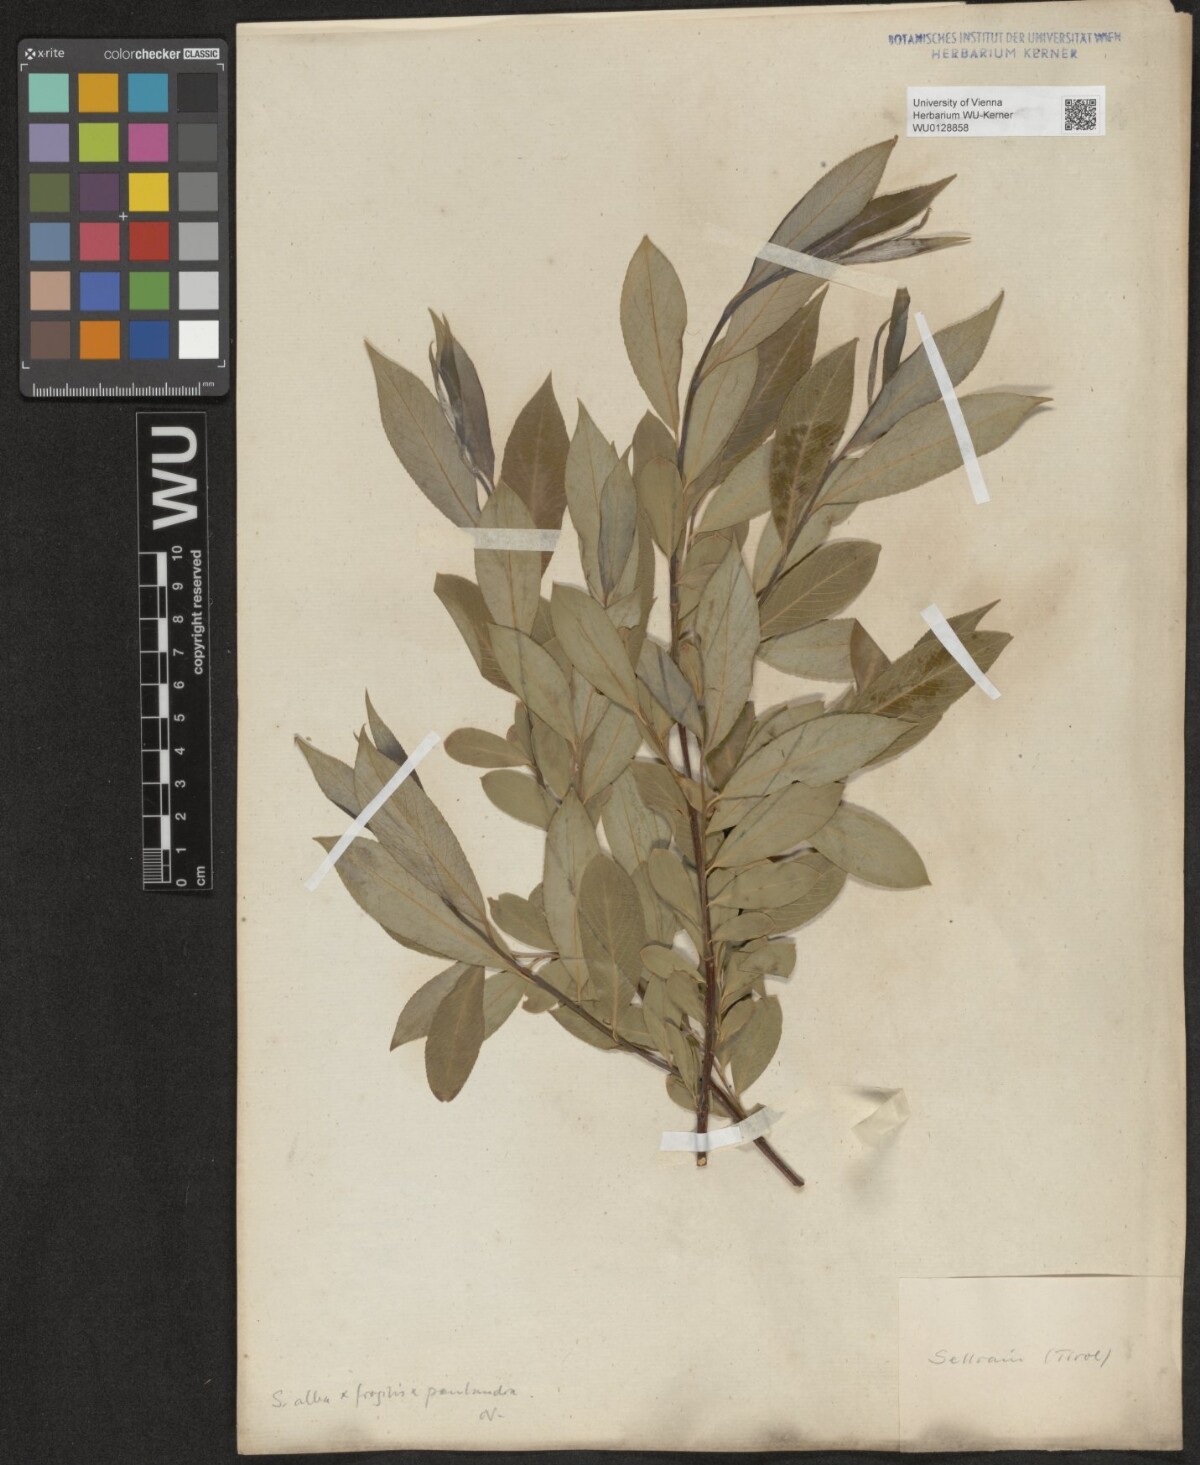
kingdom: Plantae
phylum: Tracheophyta
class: Magnoliopsida
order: Malpighiales
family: Salicaceae
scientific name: Salicaceae
